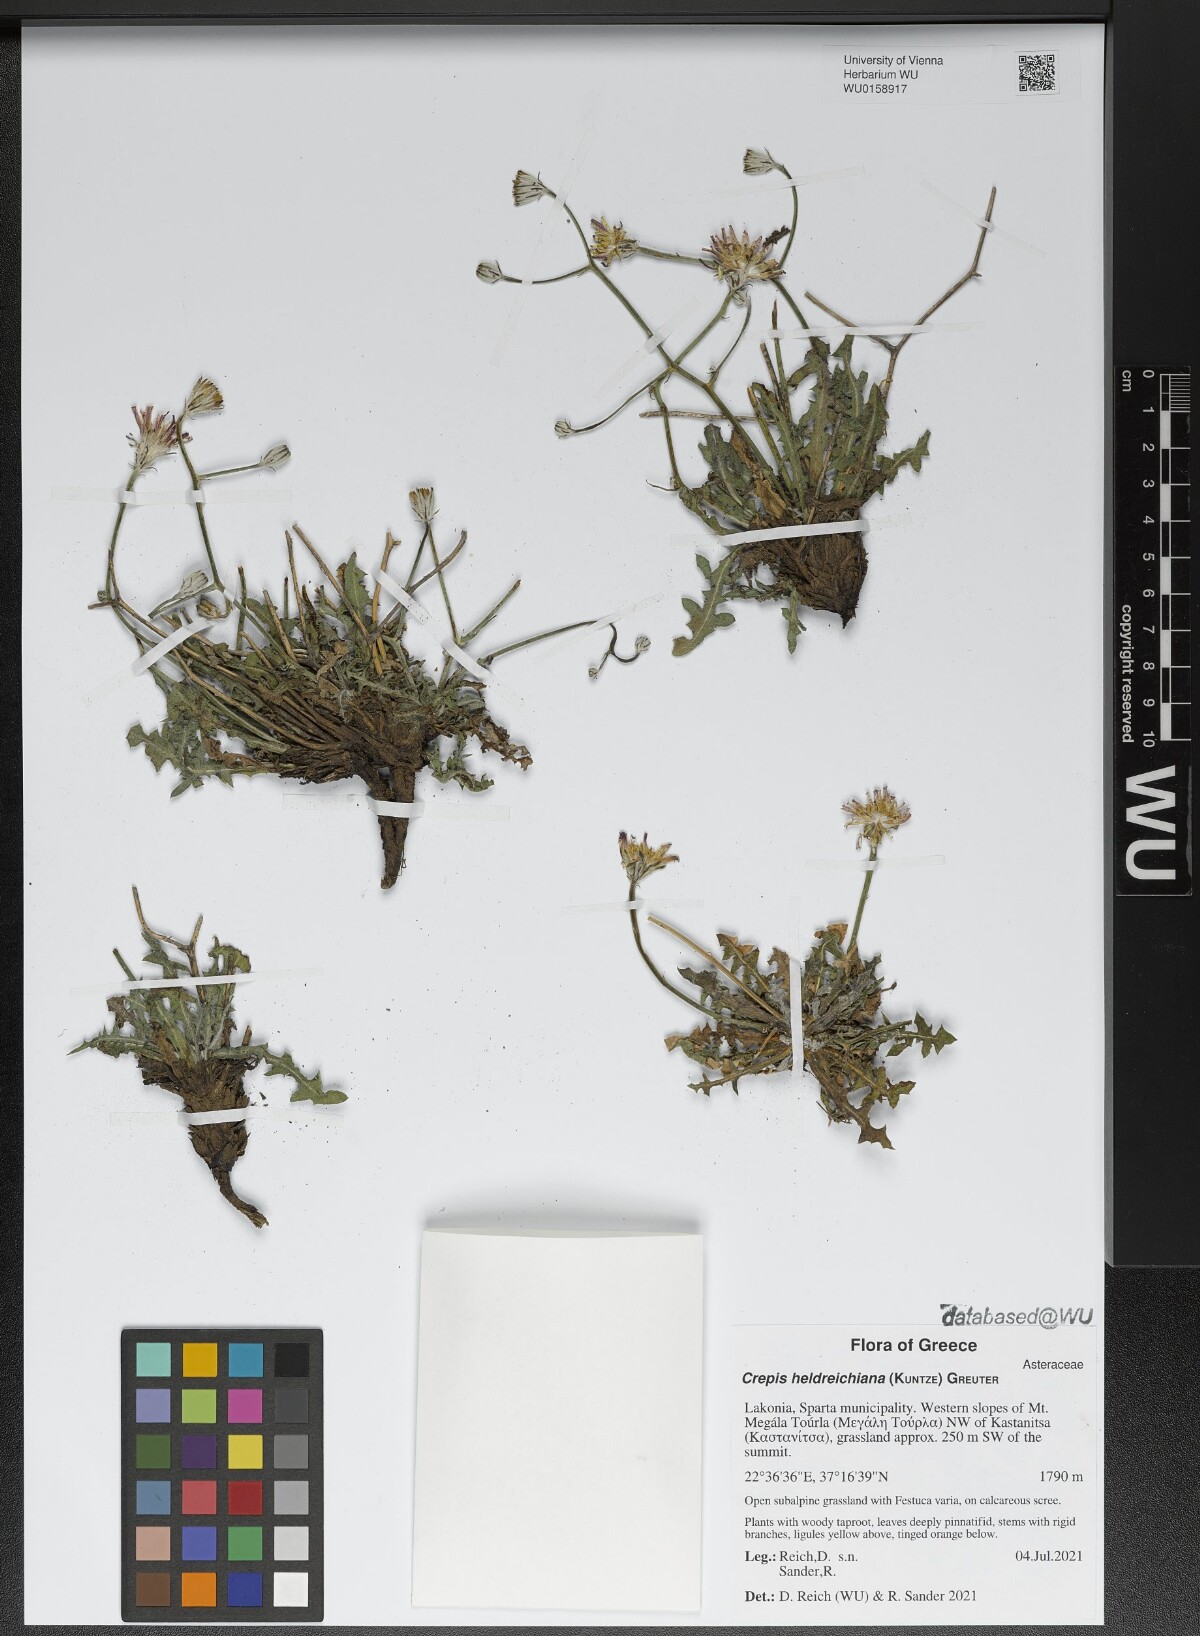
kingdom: Plantae
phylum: Tracheophyta
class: Magnoliopsida
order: Asterales
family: Asteraceae
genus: Crepis
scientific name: Crepis heldreichiana
